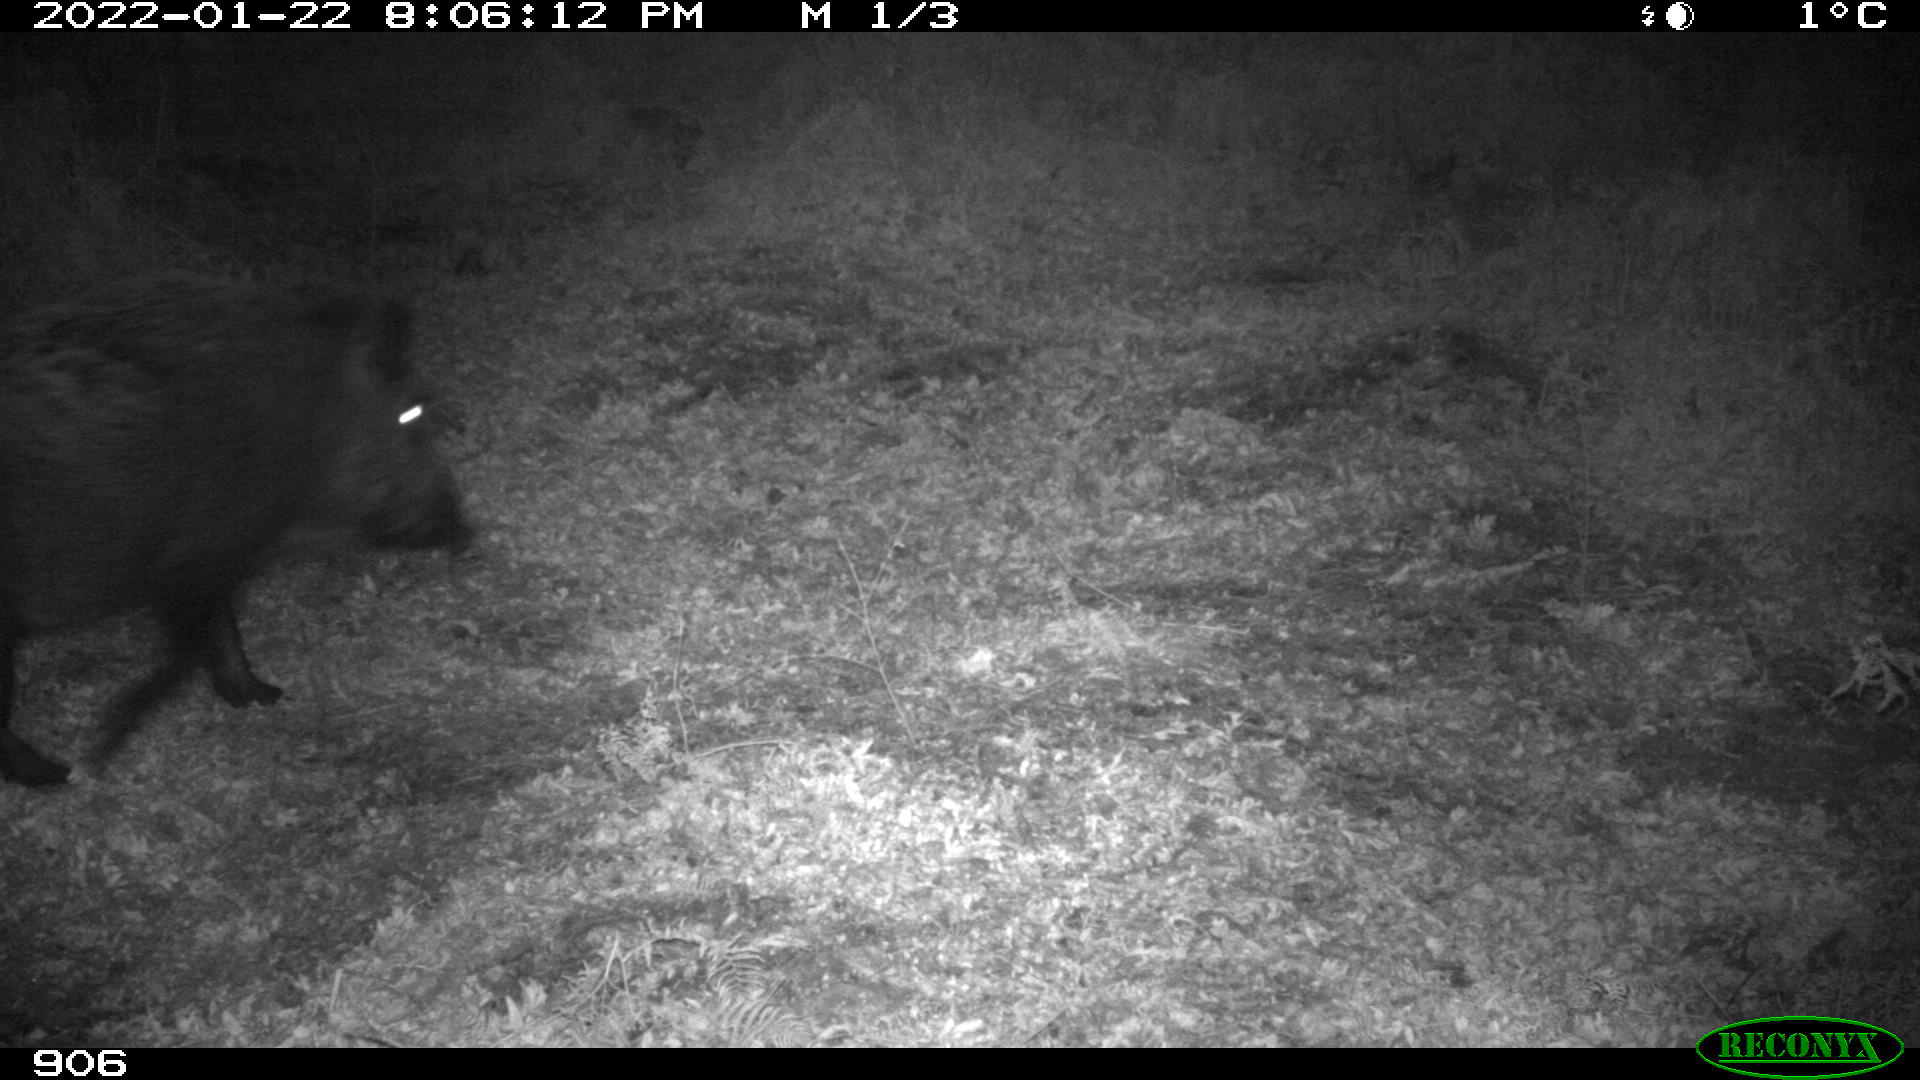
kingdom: Animalia
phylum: Chordata
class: Mammalia
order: Artiodactyla
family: Suidae
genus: Sus
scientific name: Sus scrofa
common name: Wild boar
